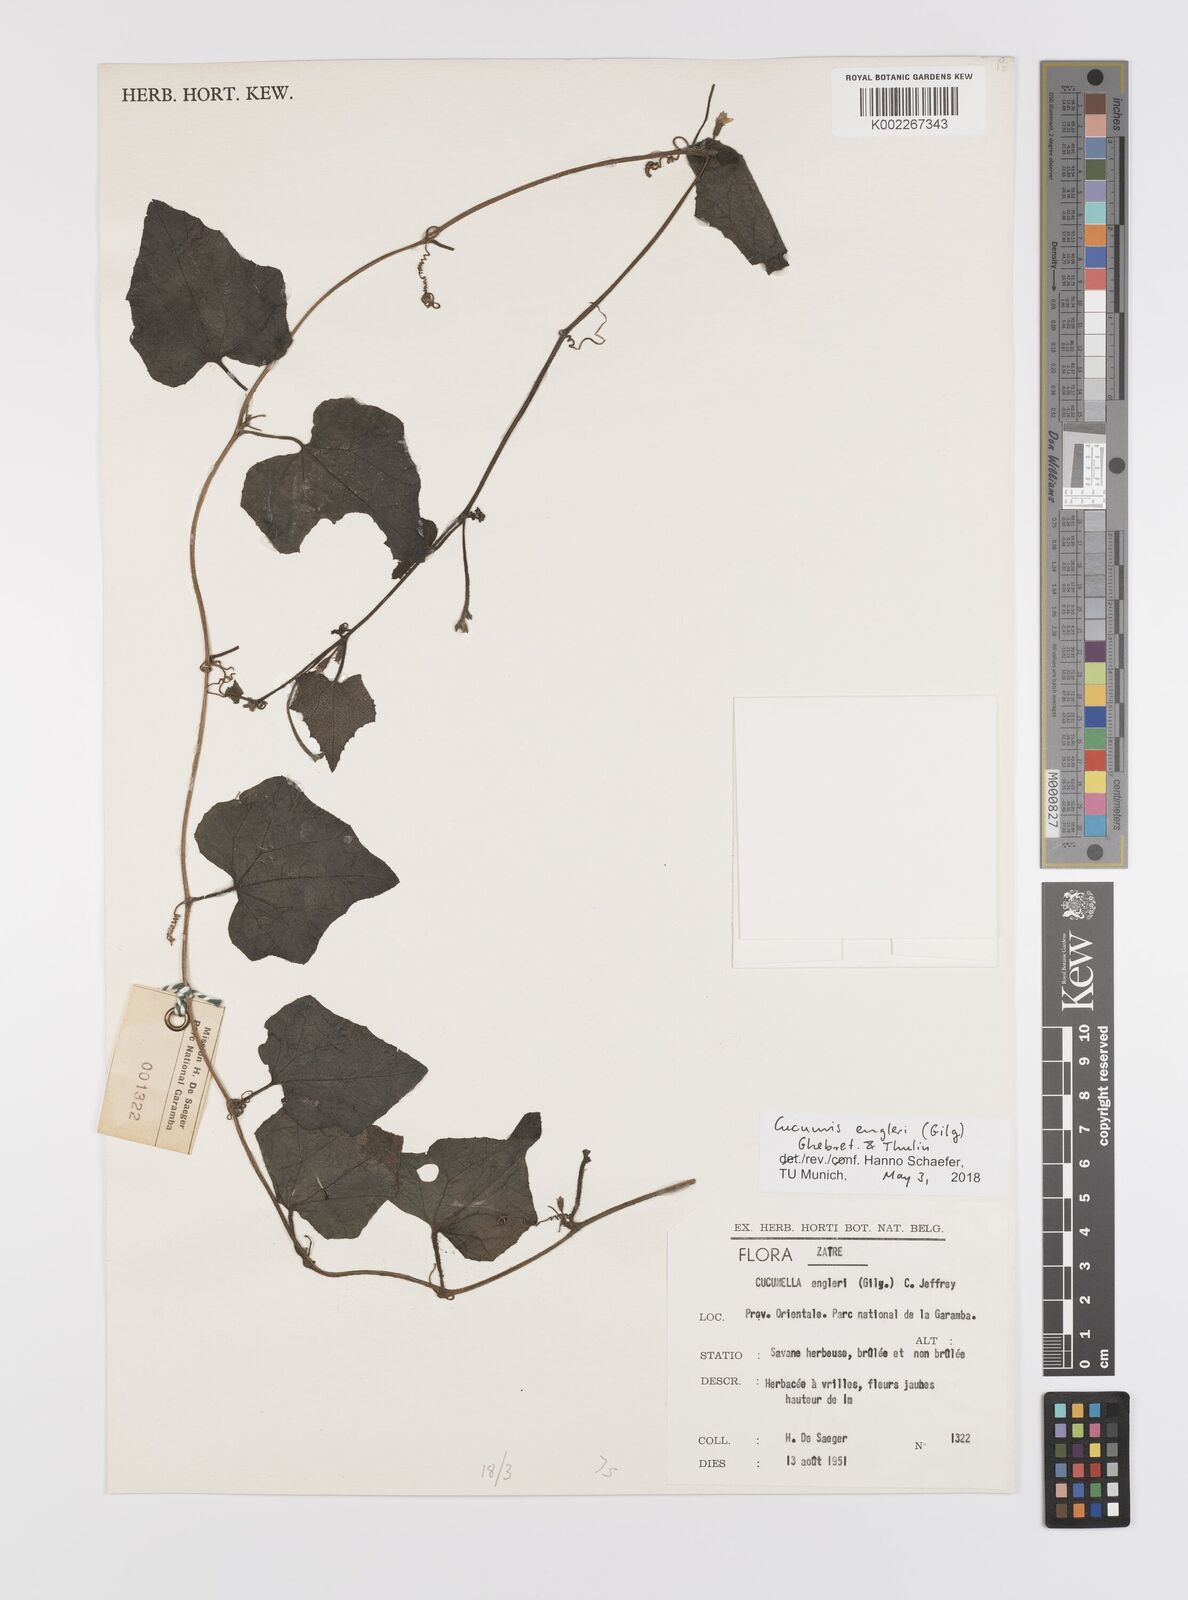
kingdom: Plantae
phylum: Tracheophyta
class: Magnoliopsida
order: Cucurbitales
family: Cucurbitaceae
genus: Cucumis
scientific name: Cucumis engleri
